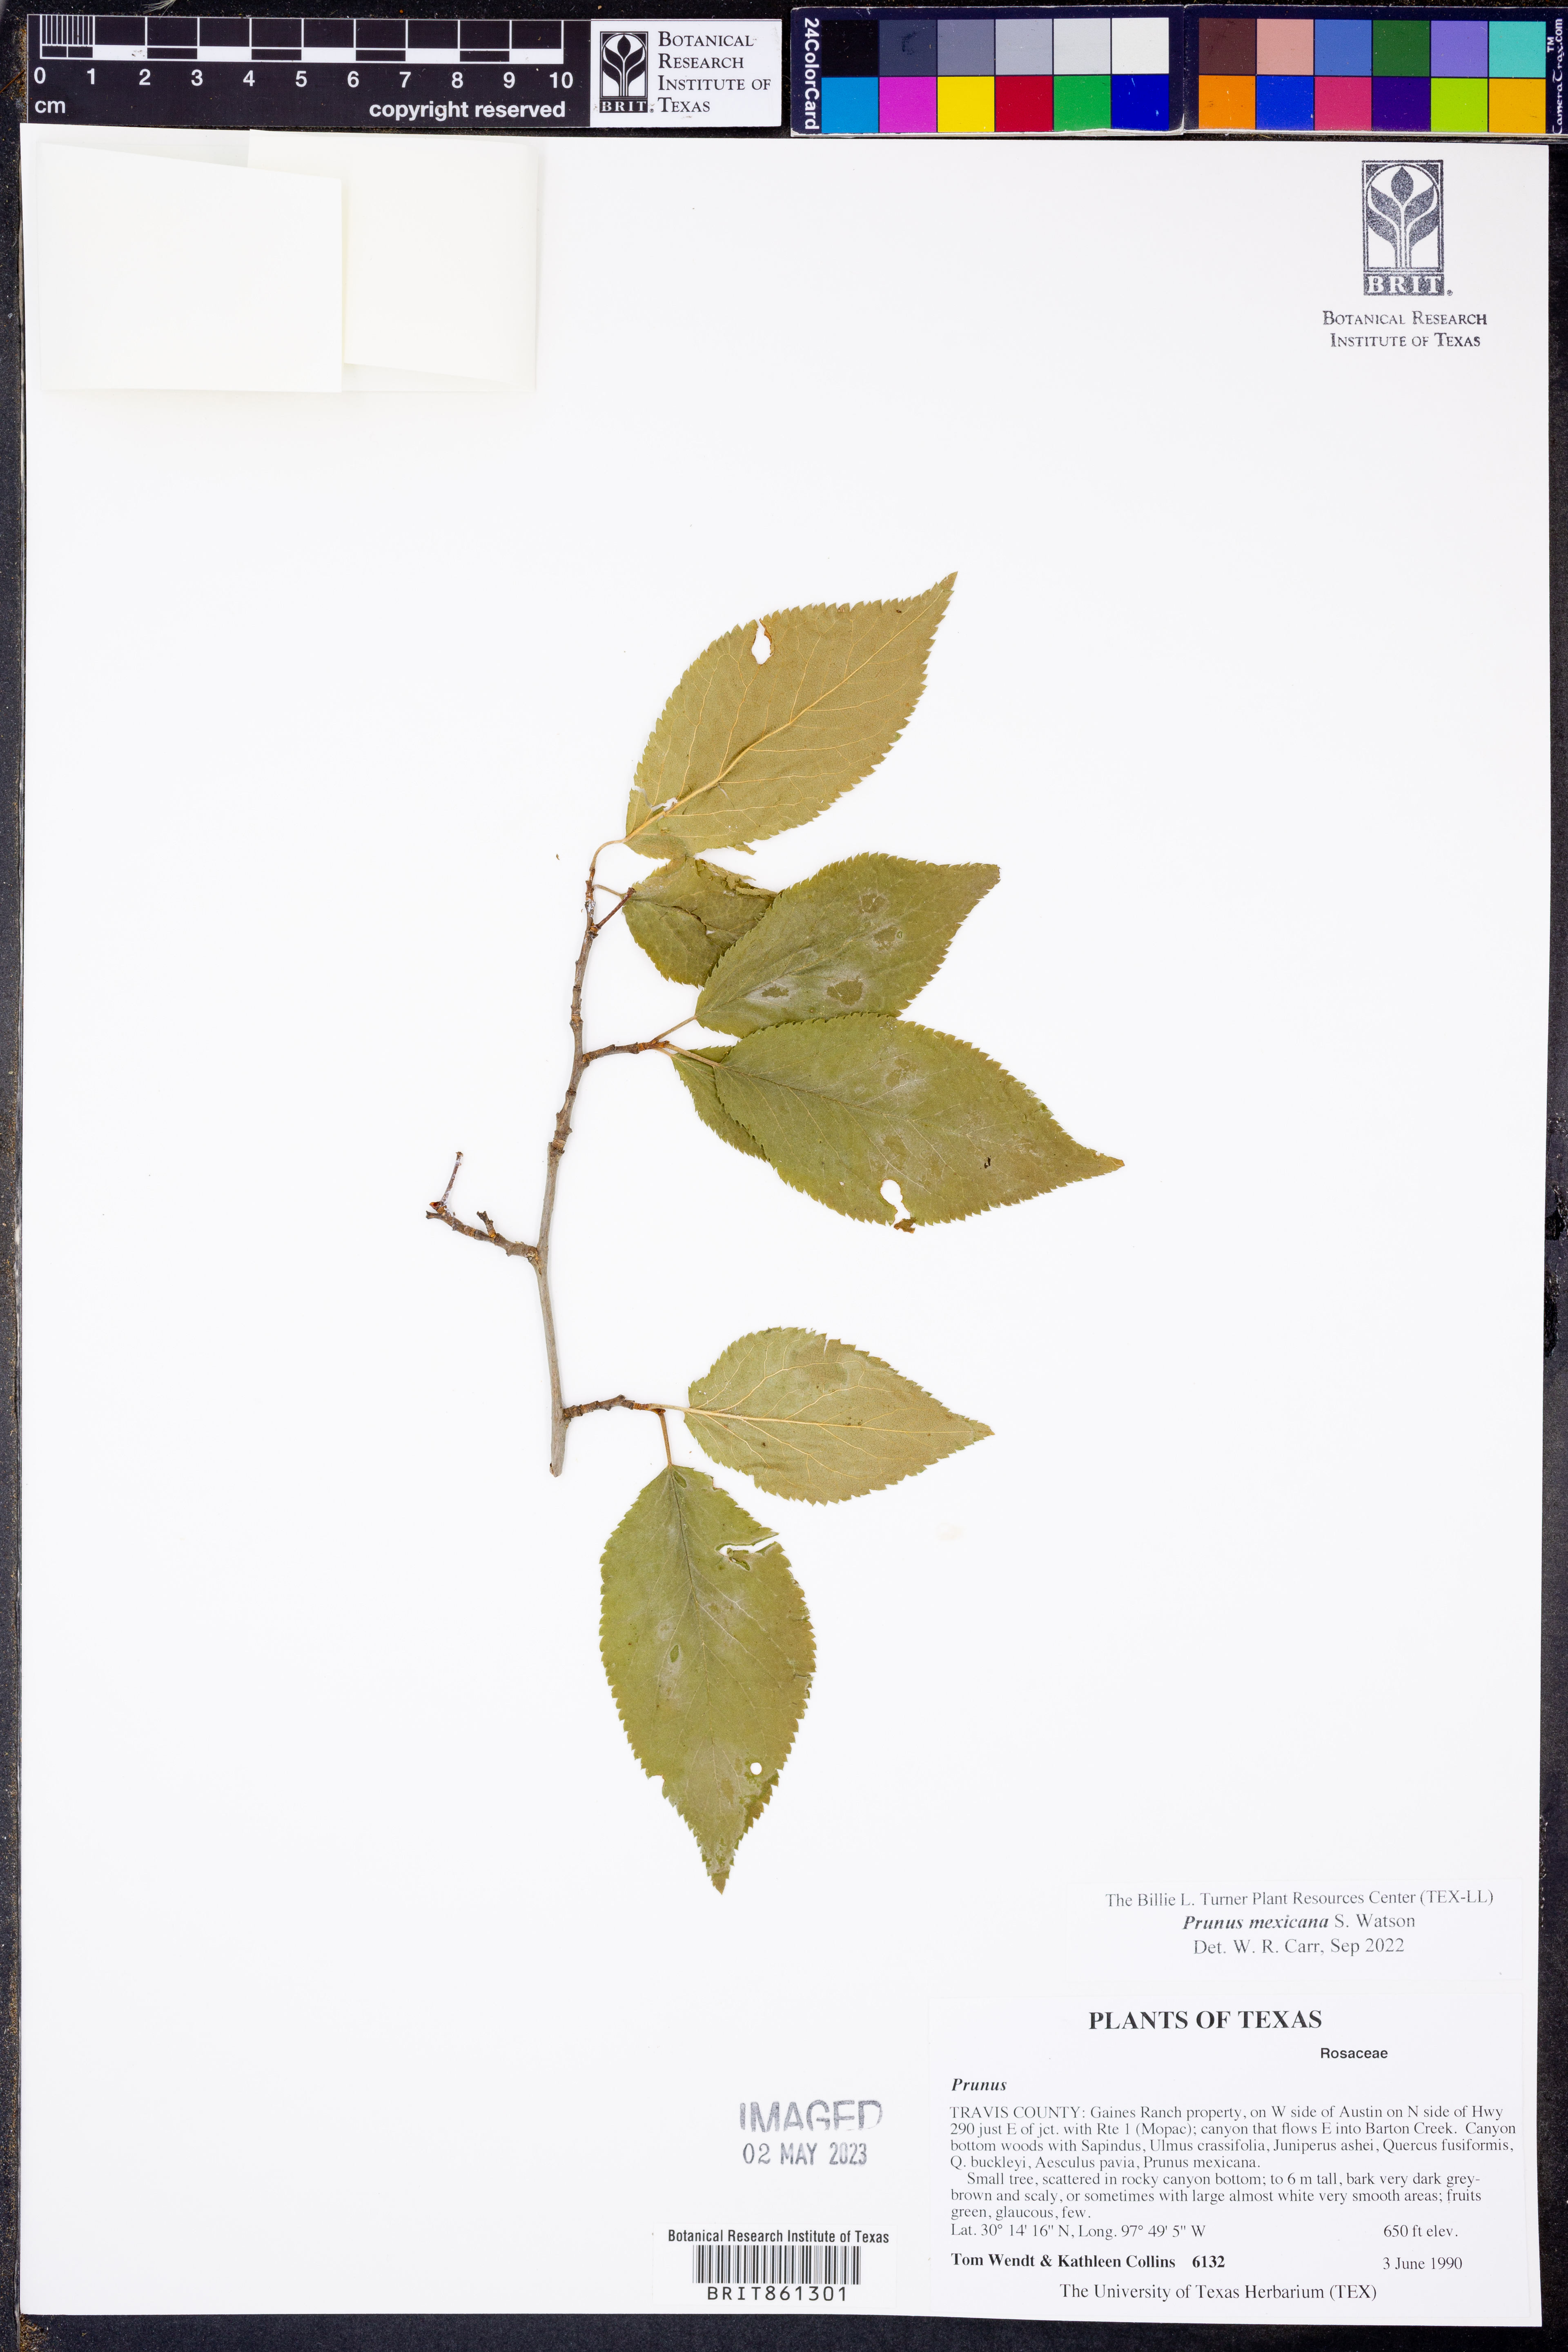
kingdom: Plantae
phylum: Tracheophyta
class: Magnoliopsida
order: Rosales
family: Rosaceae
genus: Prunus
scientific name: Prunus mexicana
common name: Mexican plum
